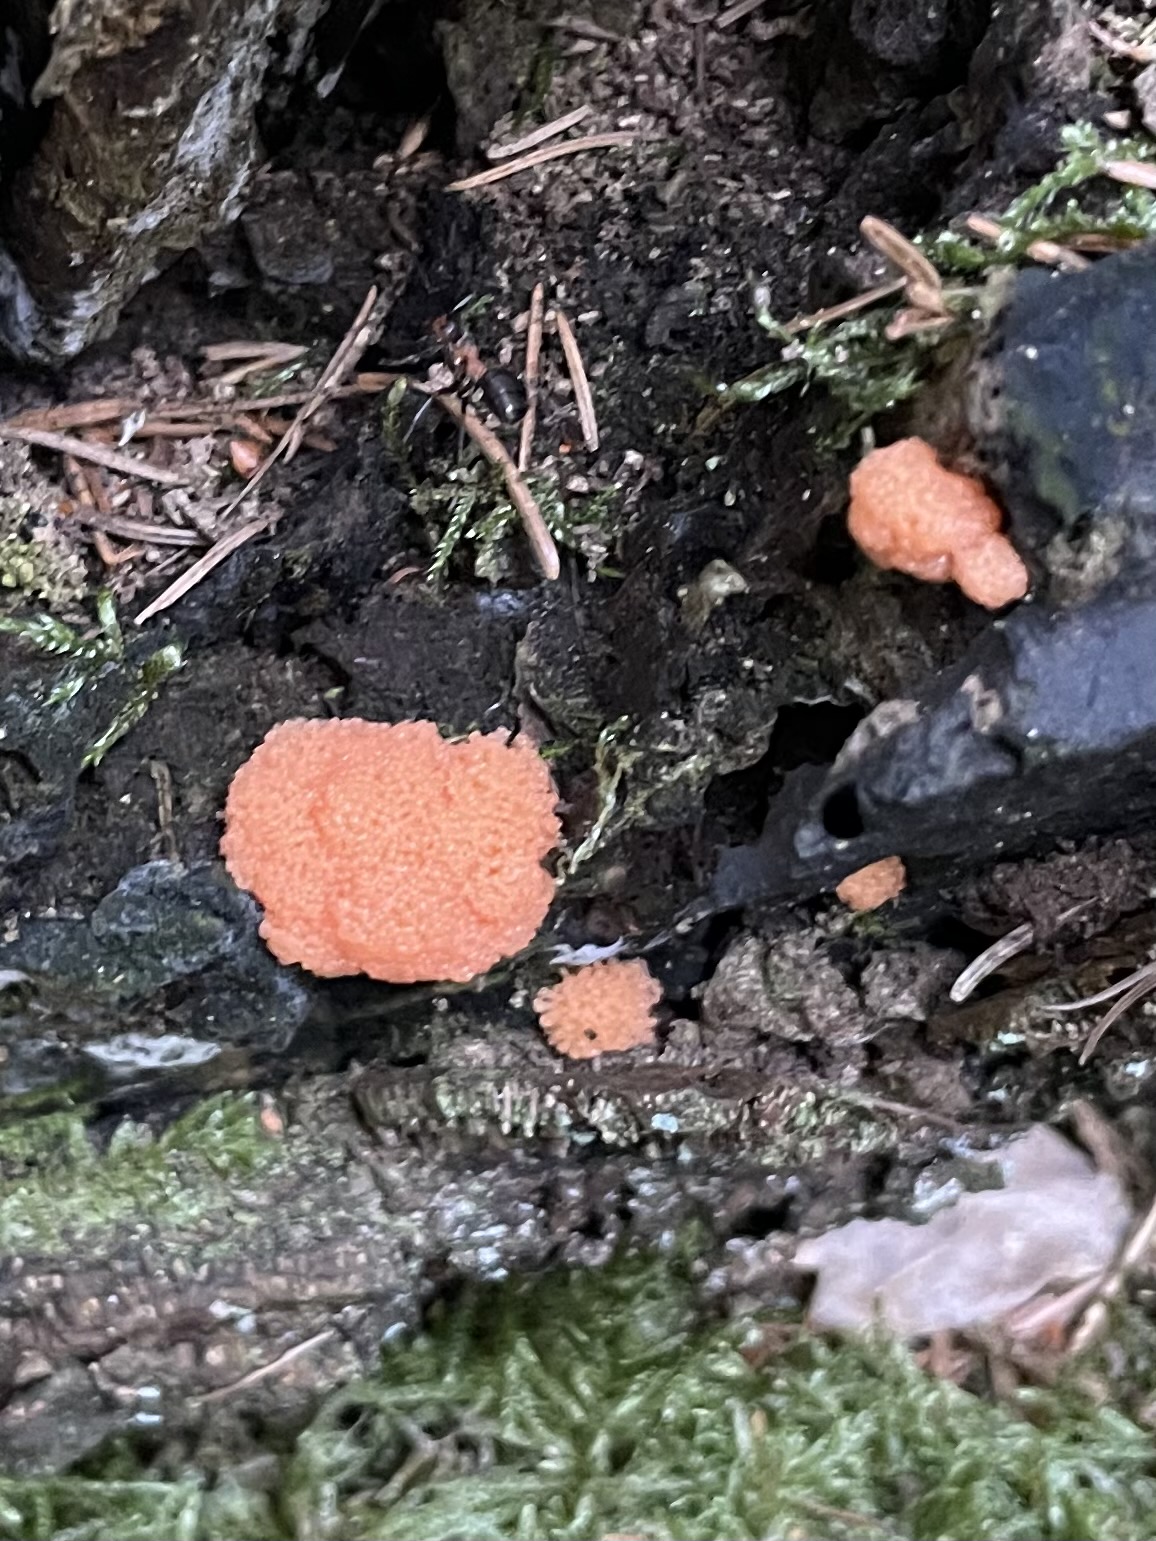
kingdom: Protozoa
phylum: Mycetozoa
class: Myxomycetes
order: Cribrariales
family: Tubiferaceae
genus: Tubifera
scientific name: Tubifera ferruginosa
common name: kanel-støvrør
